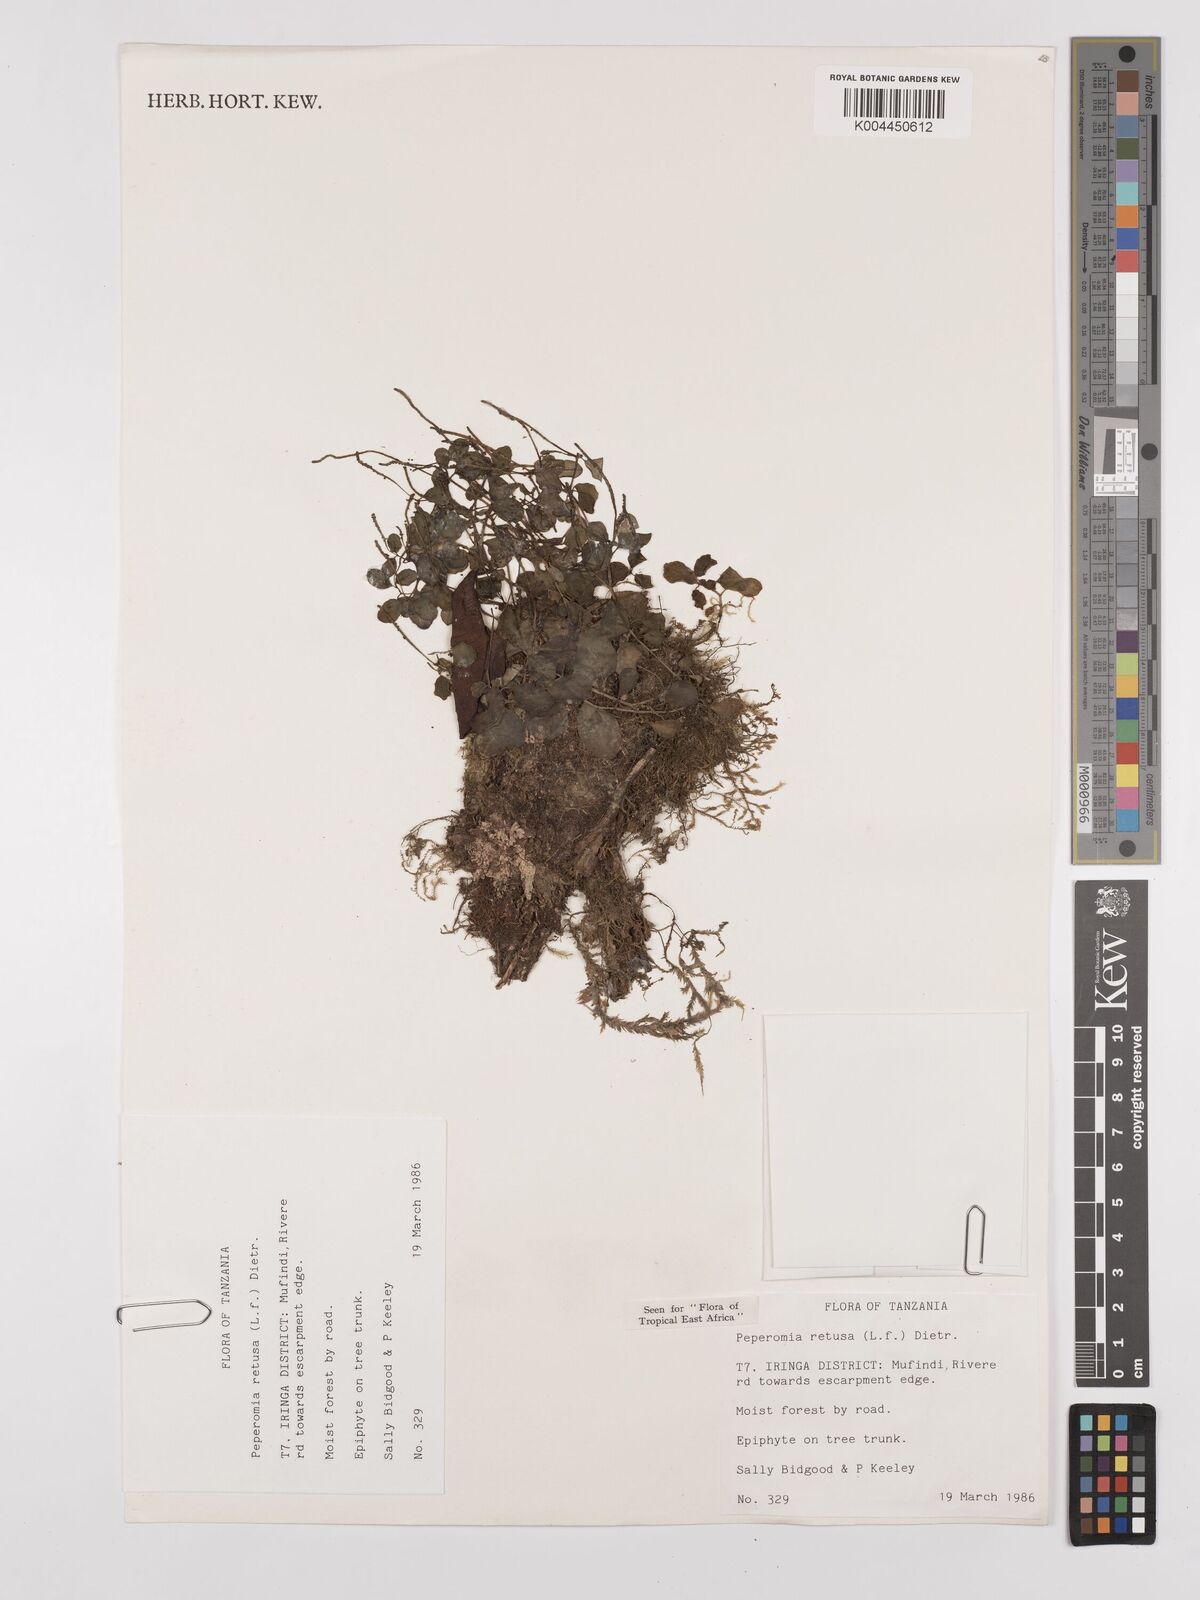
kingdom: Plantae
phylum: Tracheophyta
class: Magnoliopsida
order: Piperales
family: Piperaceae
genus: Peperomia
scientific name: Peperomia retusa
